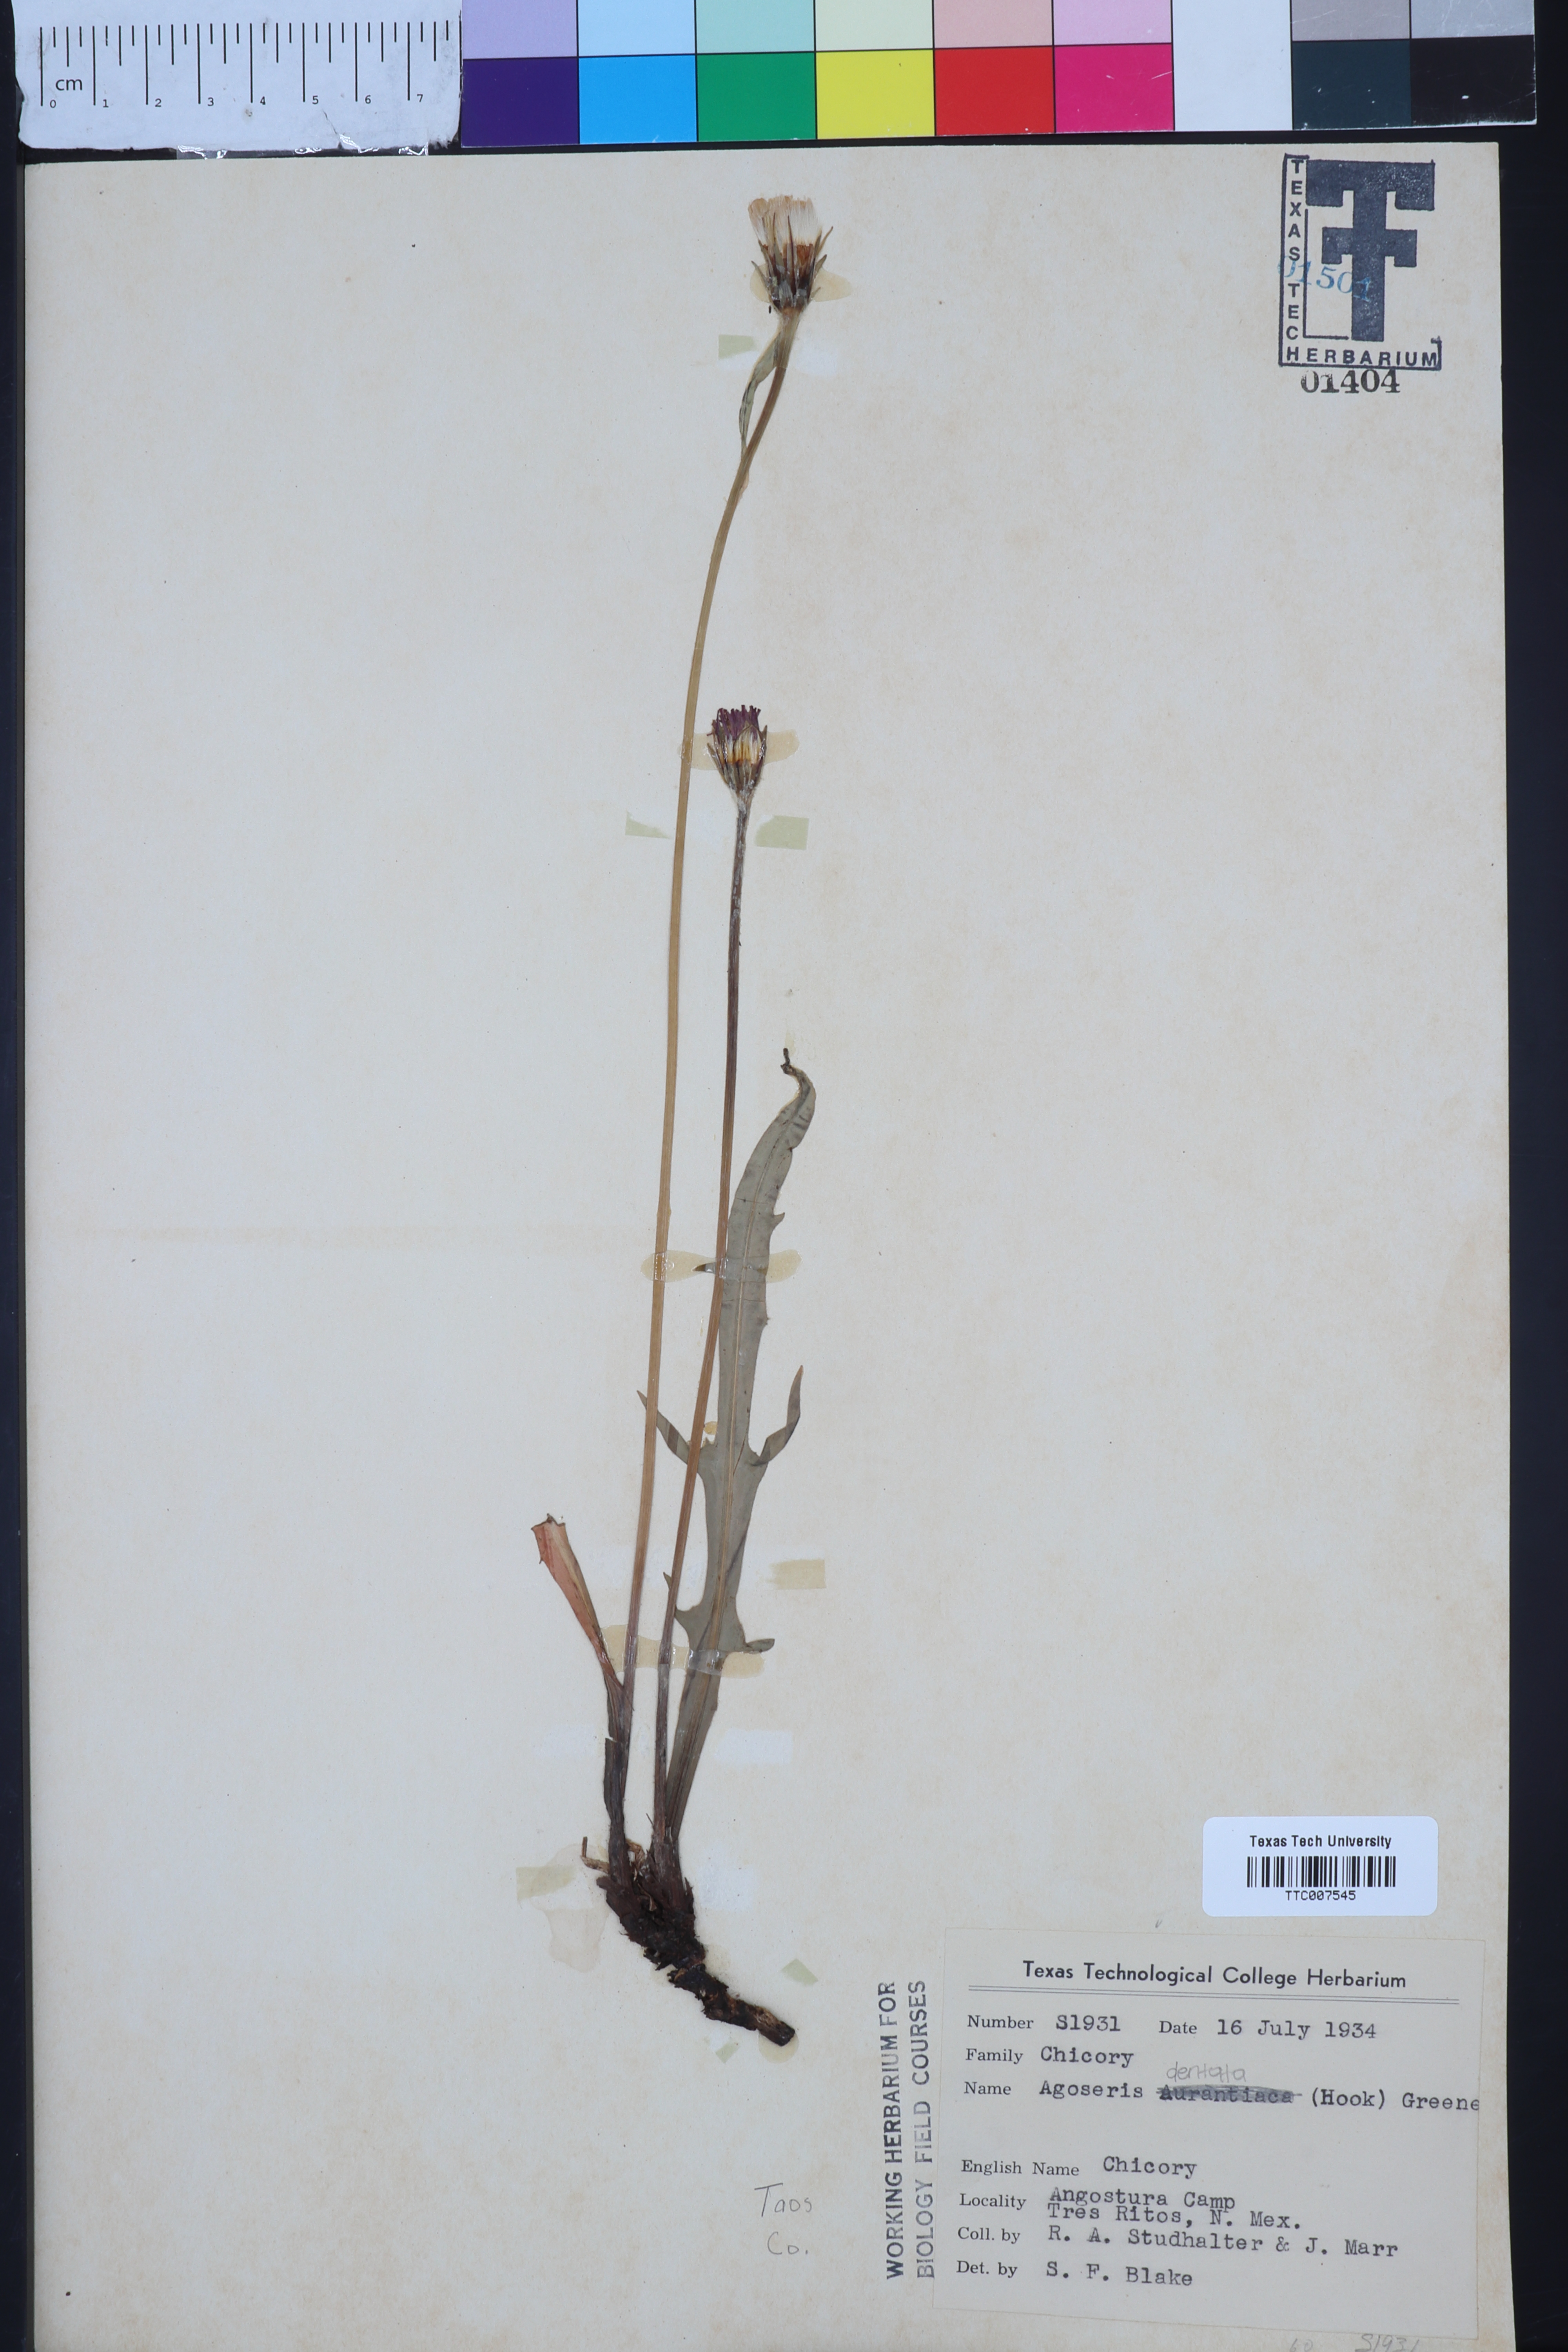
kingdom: Plantae
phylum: Tracheophyta
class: Magnoliopsida
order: Asterales
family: Asteraceae
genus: Agoseris
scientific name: Agoseris aurantiaca
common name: Mountain agoseris
